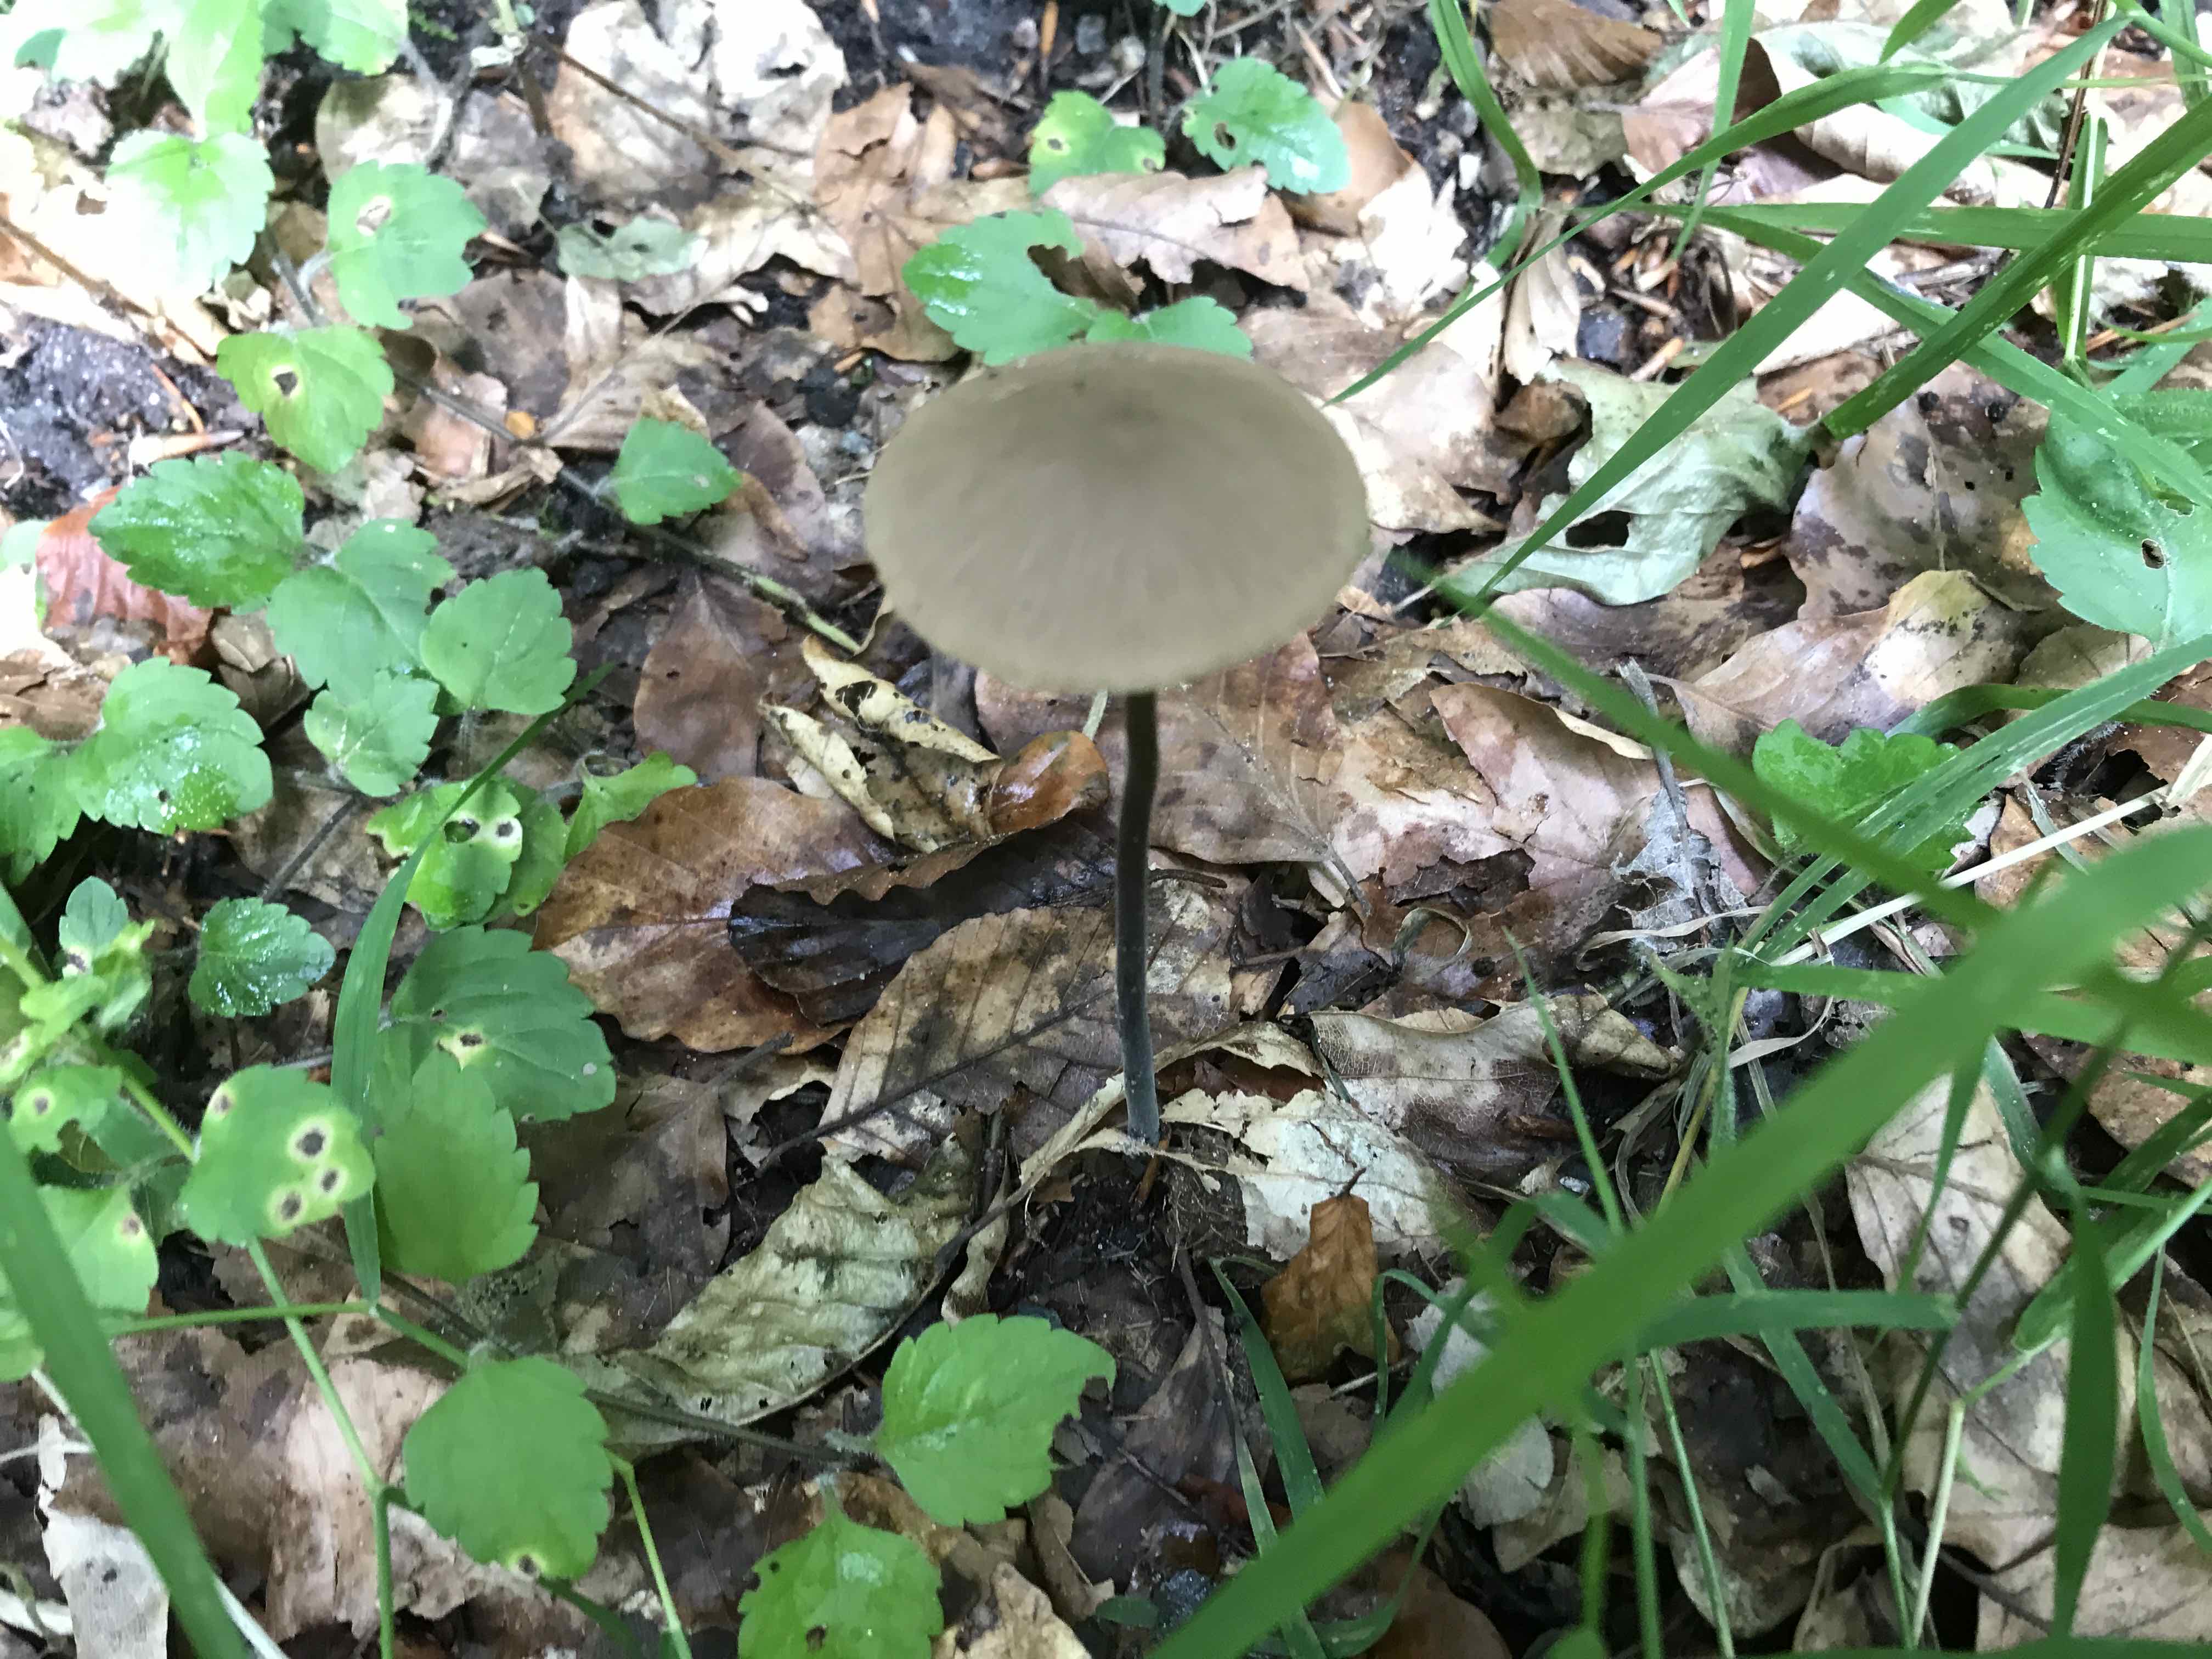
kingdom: Fungi
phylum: Basidiomycota
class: Agaricomycetes
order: Agaricales
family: Omphalotaceae
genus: Mycetinis
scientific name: Mycetinis alliaceus
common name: stor løghat
